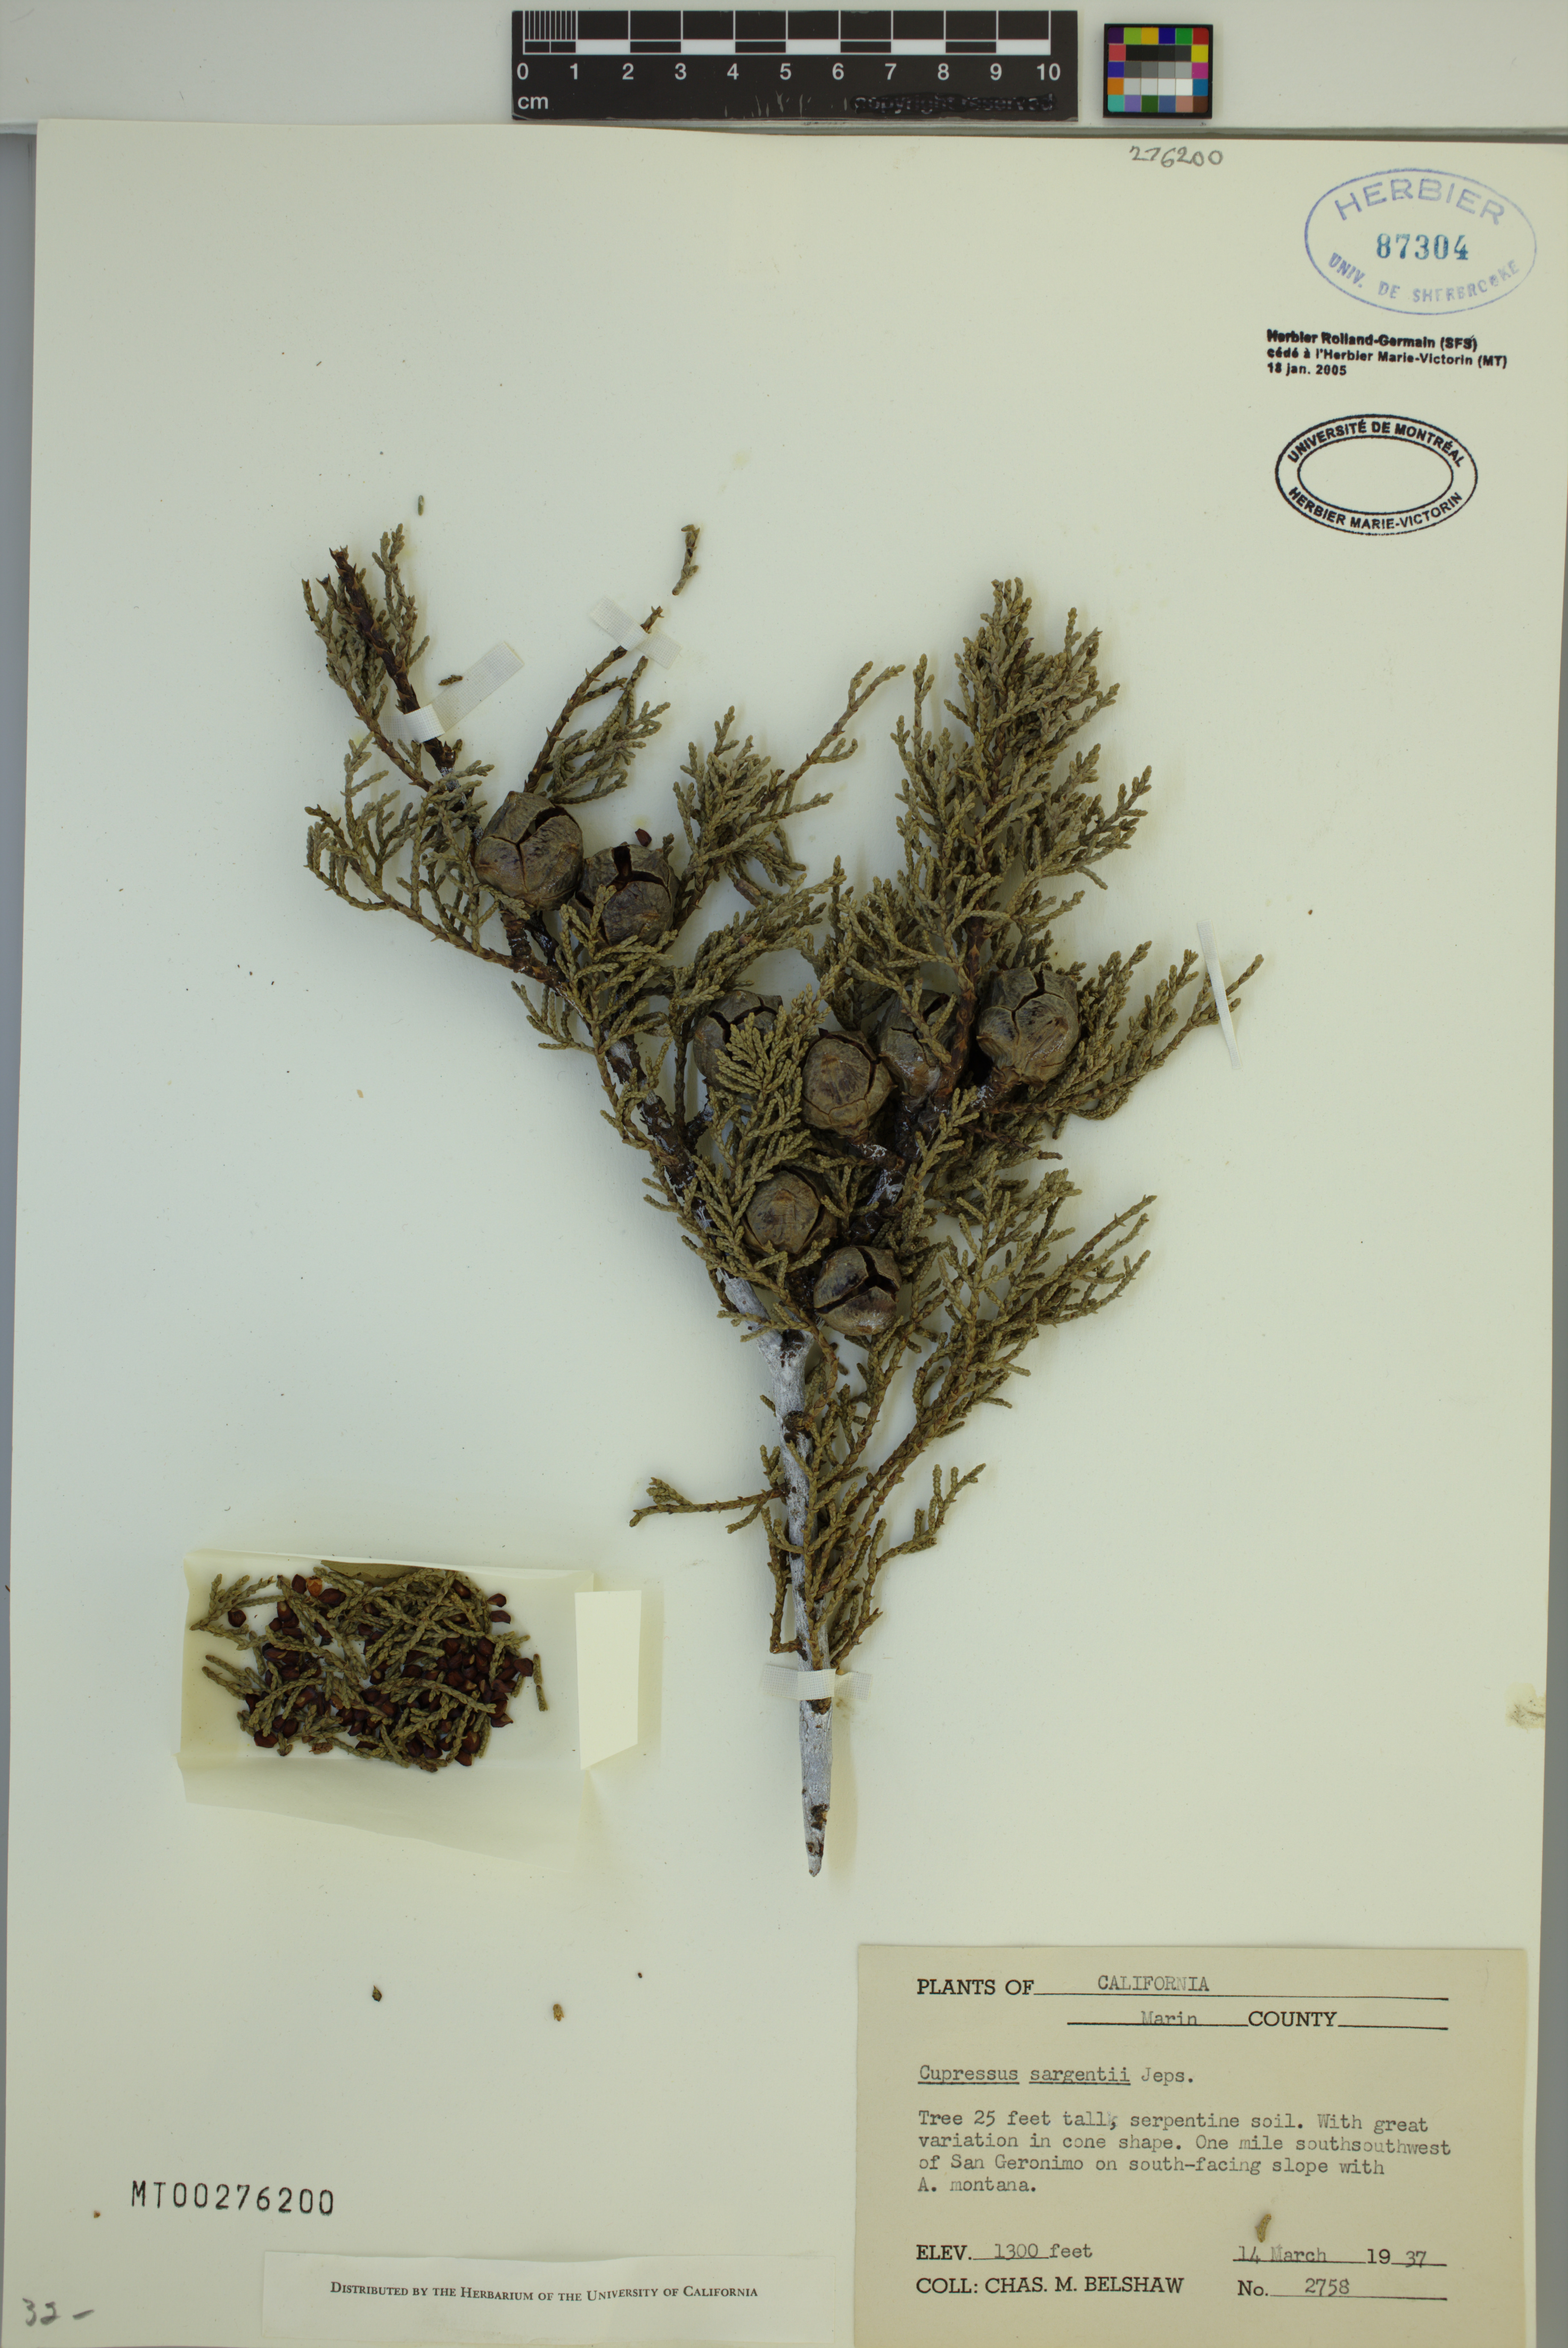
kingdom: Plantae
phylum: Tracheophyta
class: Pinopsida
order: Pinales
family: Cupressaceae
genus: Cupressus
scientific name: Cupressus sargentii
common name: Sargent cypress
